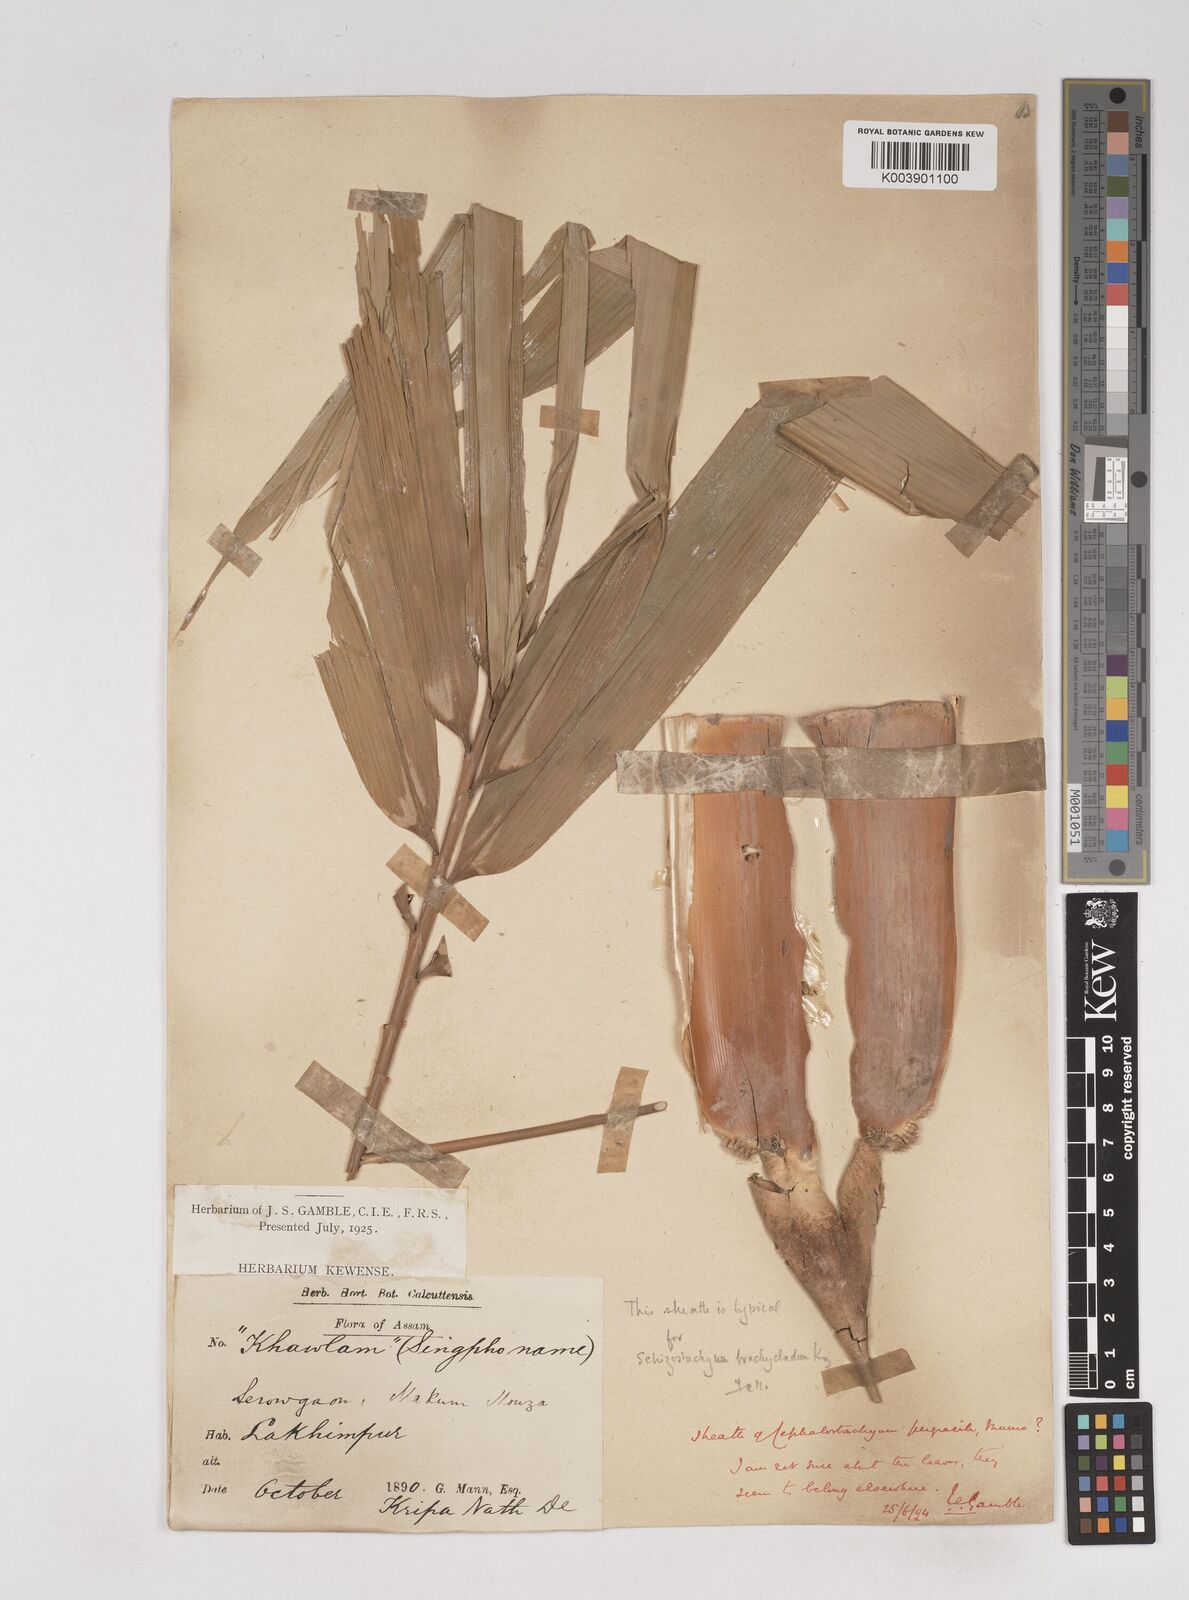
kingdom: Plantae
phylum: Tracheophyta
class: Liliopsida
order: Poales
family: Poaceae
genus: Schizostachyum
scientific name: Schizostachyum pergracile
